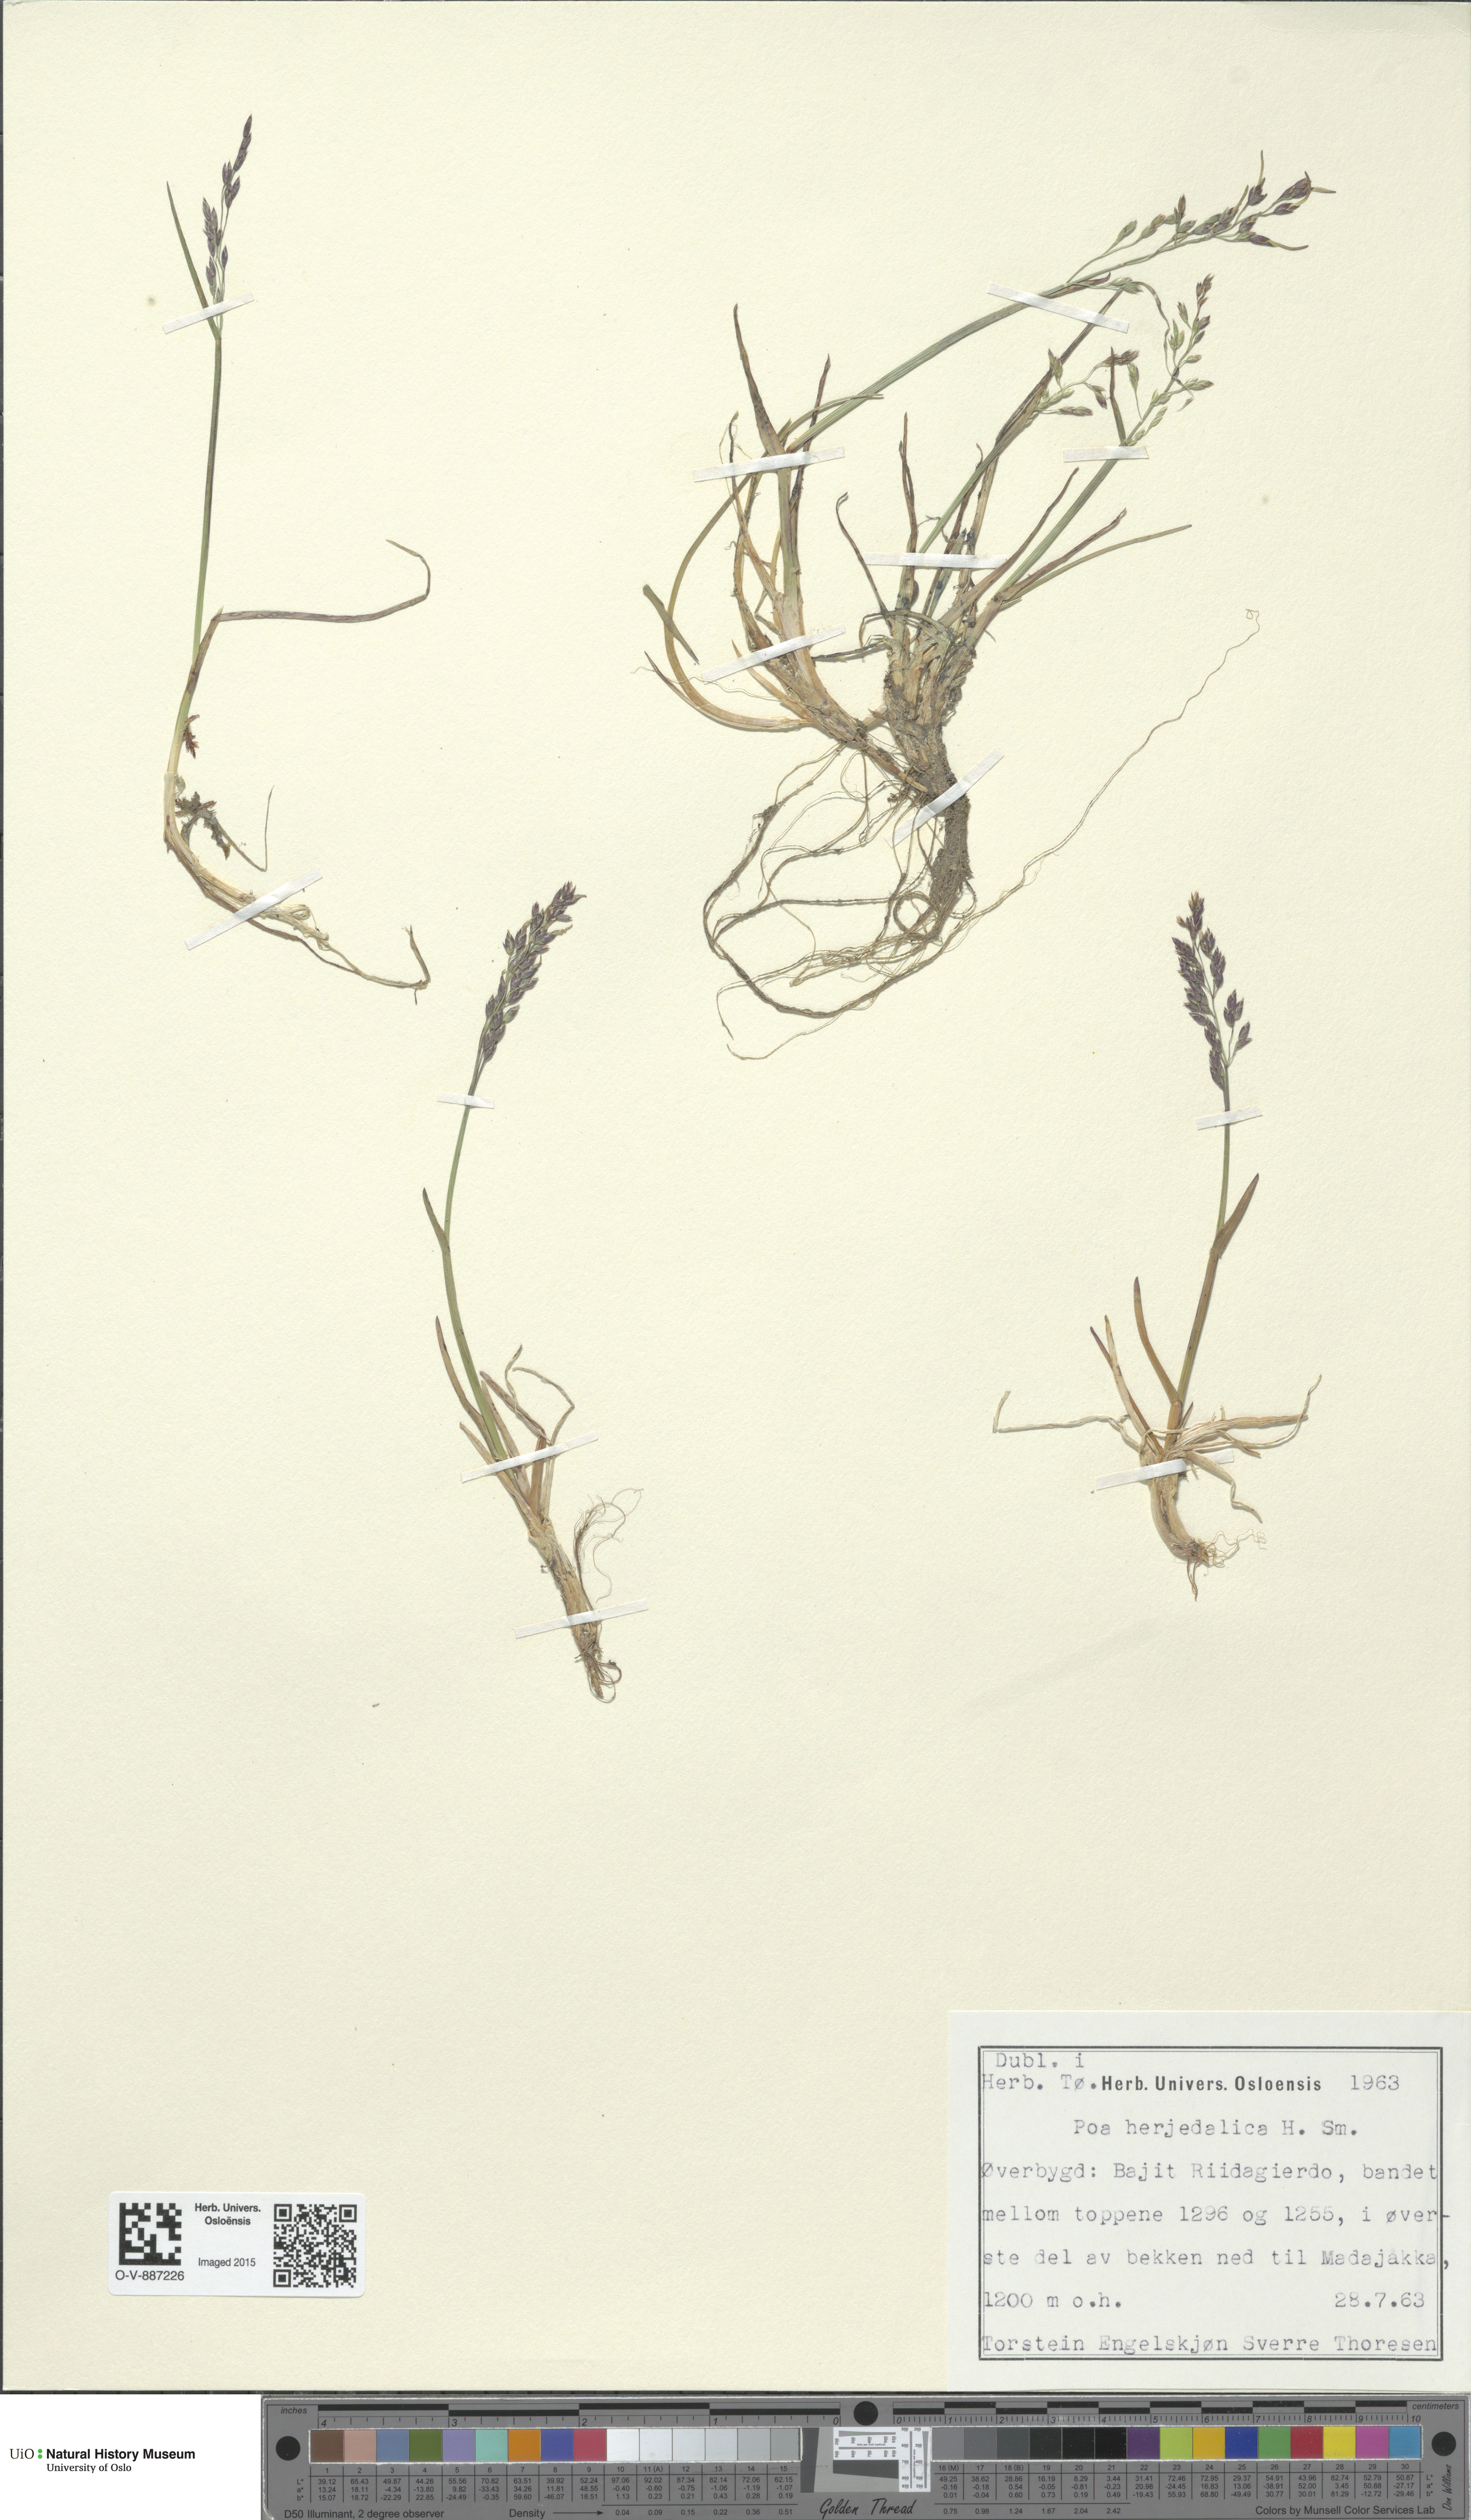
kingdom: Plantae
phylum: Tracheophyta
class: Liliopsida
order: Poales
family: Poaceae
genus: Poa
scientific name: Poa herjedalica
